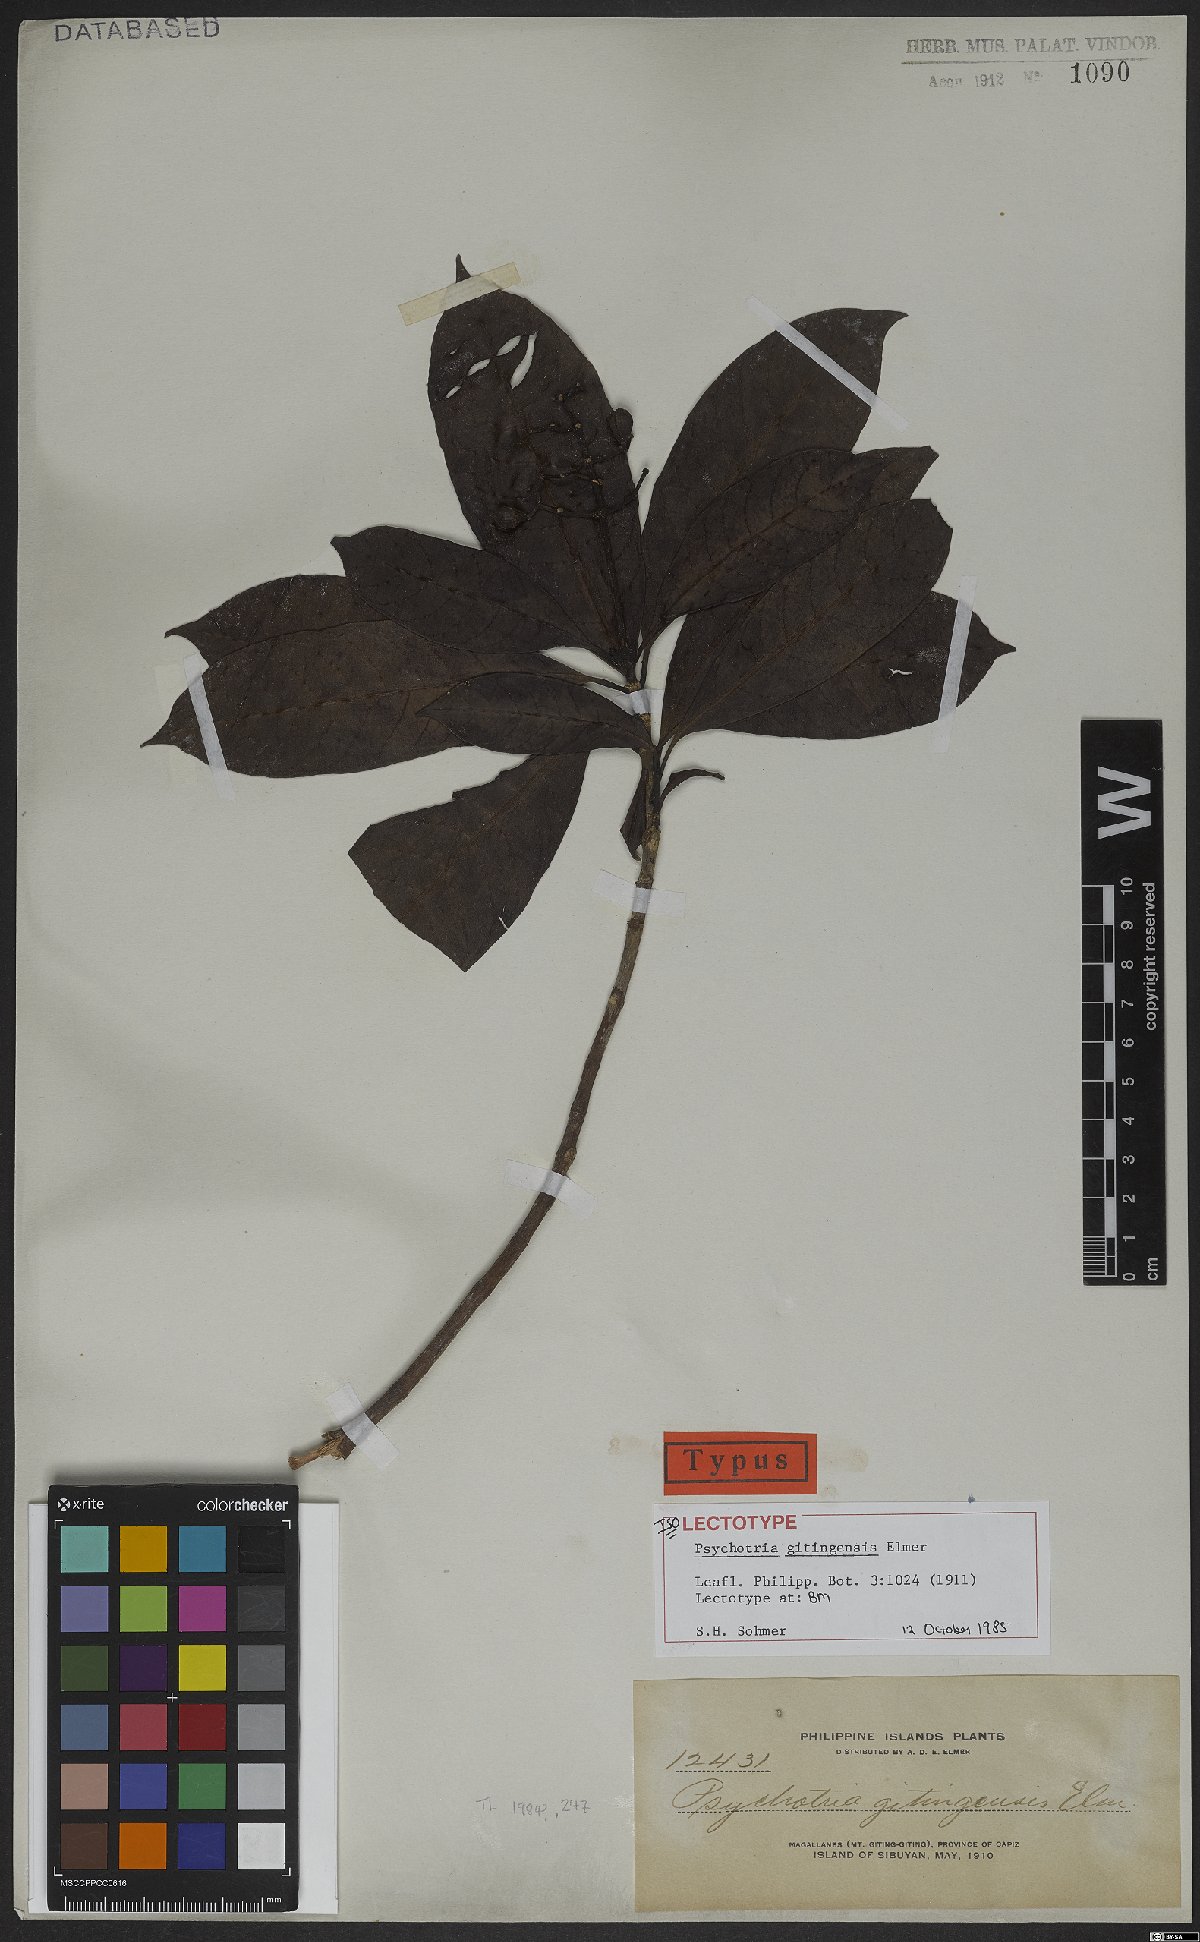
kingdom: Plantae
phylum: Tracheophyta
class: Magnoliopsida
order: Gentianales
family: Rubiaceae
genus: Psychotria
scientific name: Psychotria gitingensis
